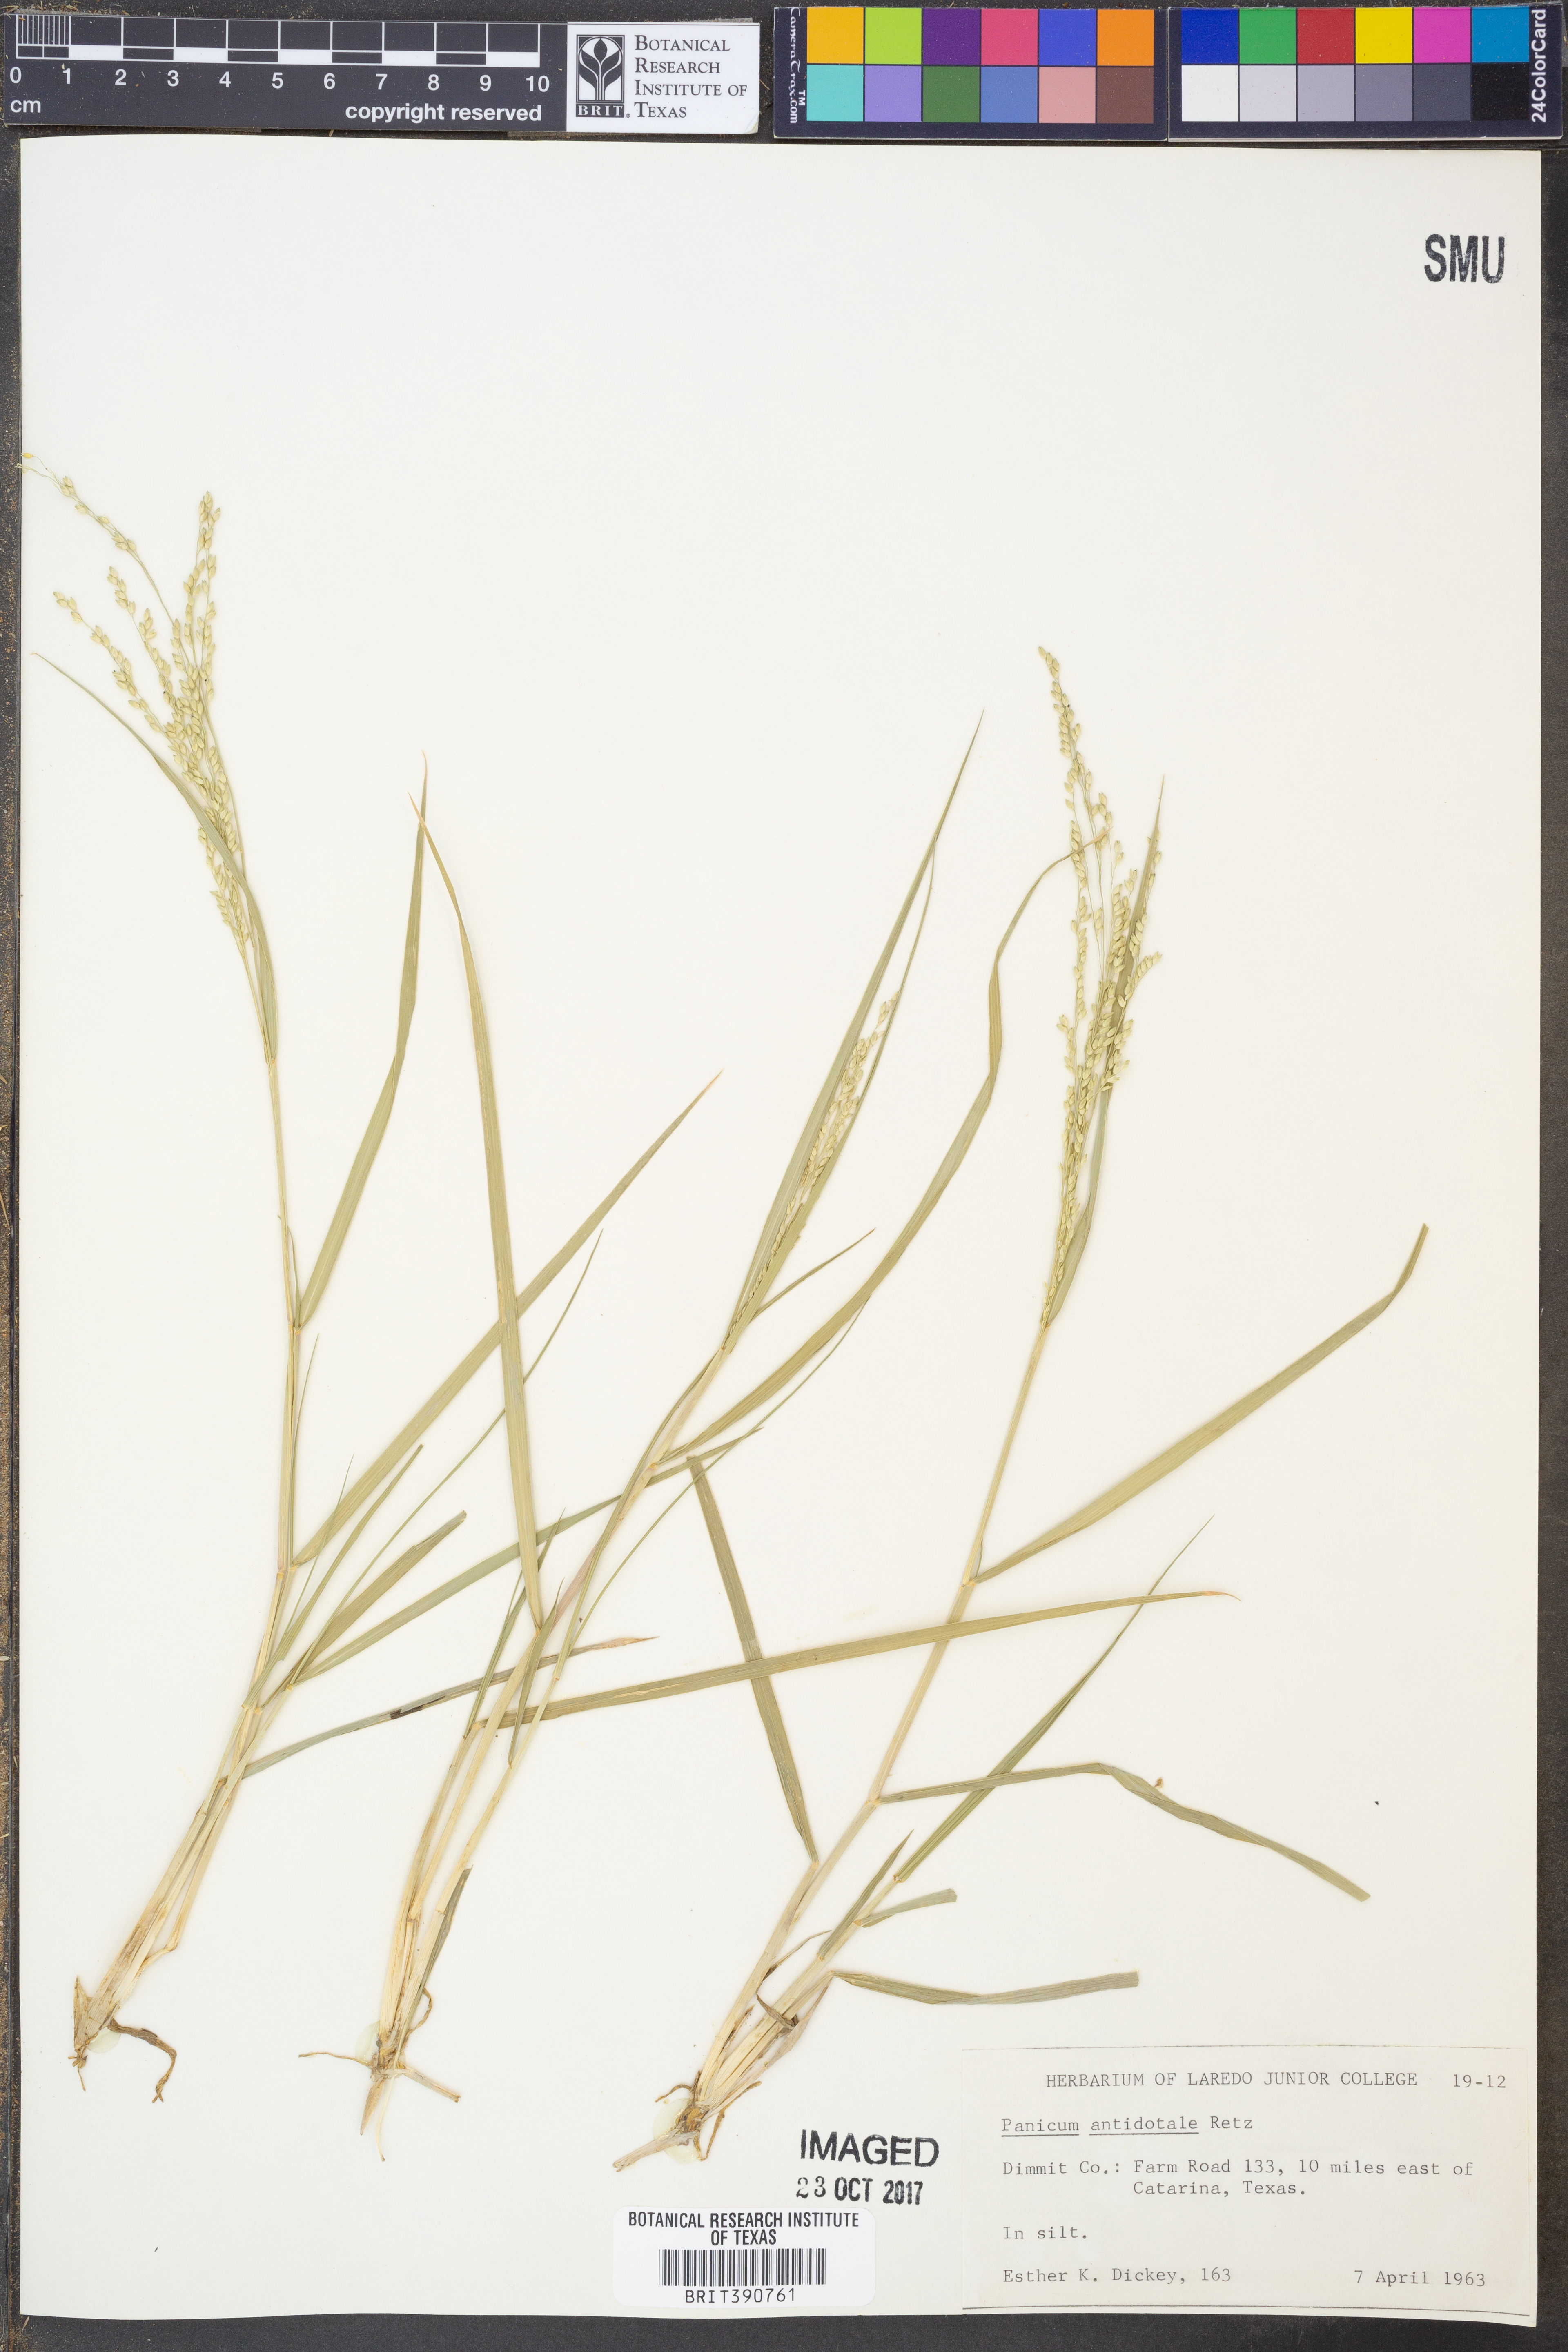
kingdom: Plantae
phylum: Tracheophyta
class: Liliopsida
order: Poales
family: Poaceae
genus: Panicum
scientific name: Panicum antidotale
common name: Blue panicum
